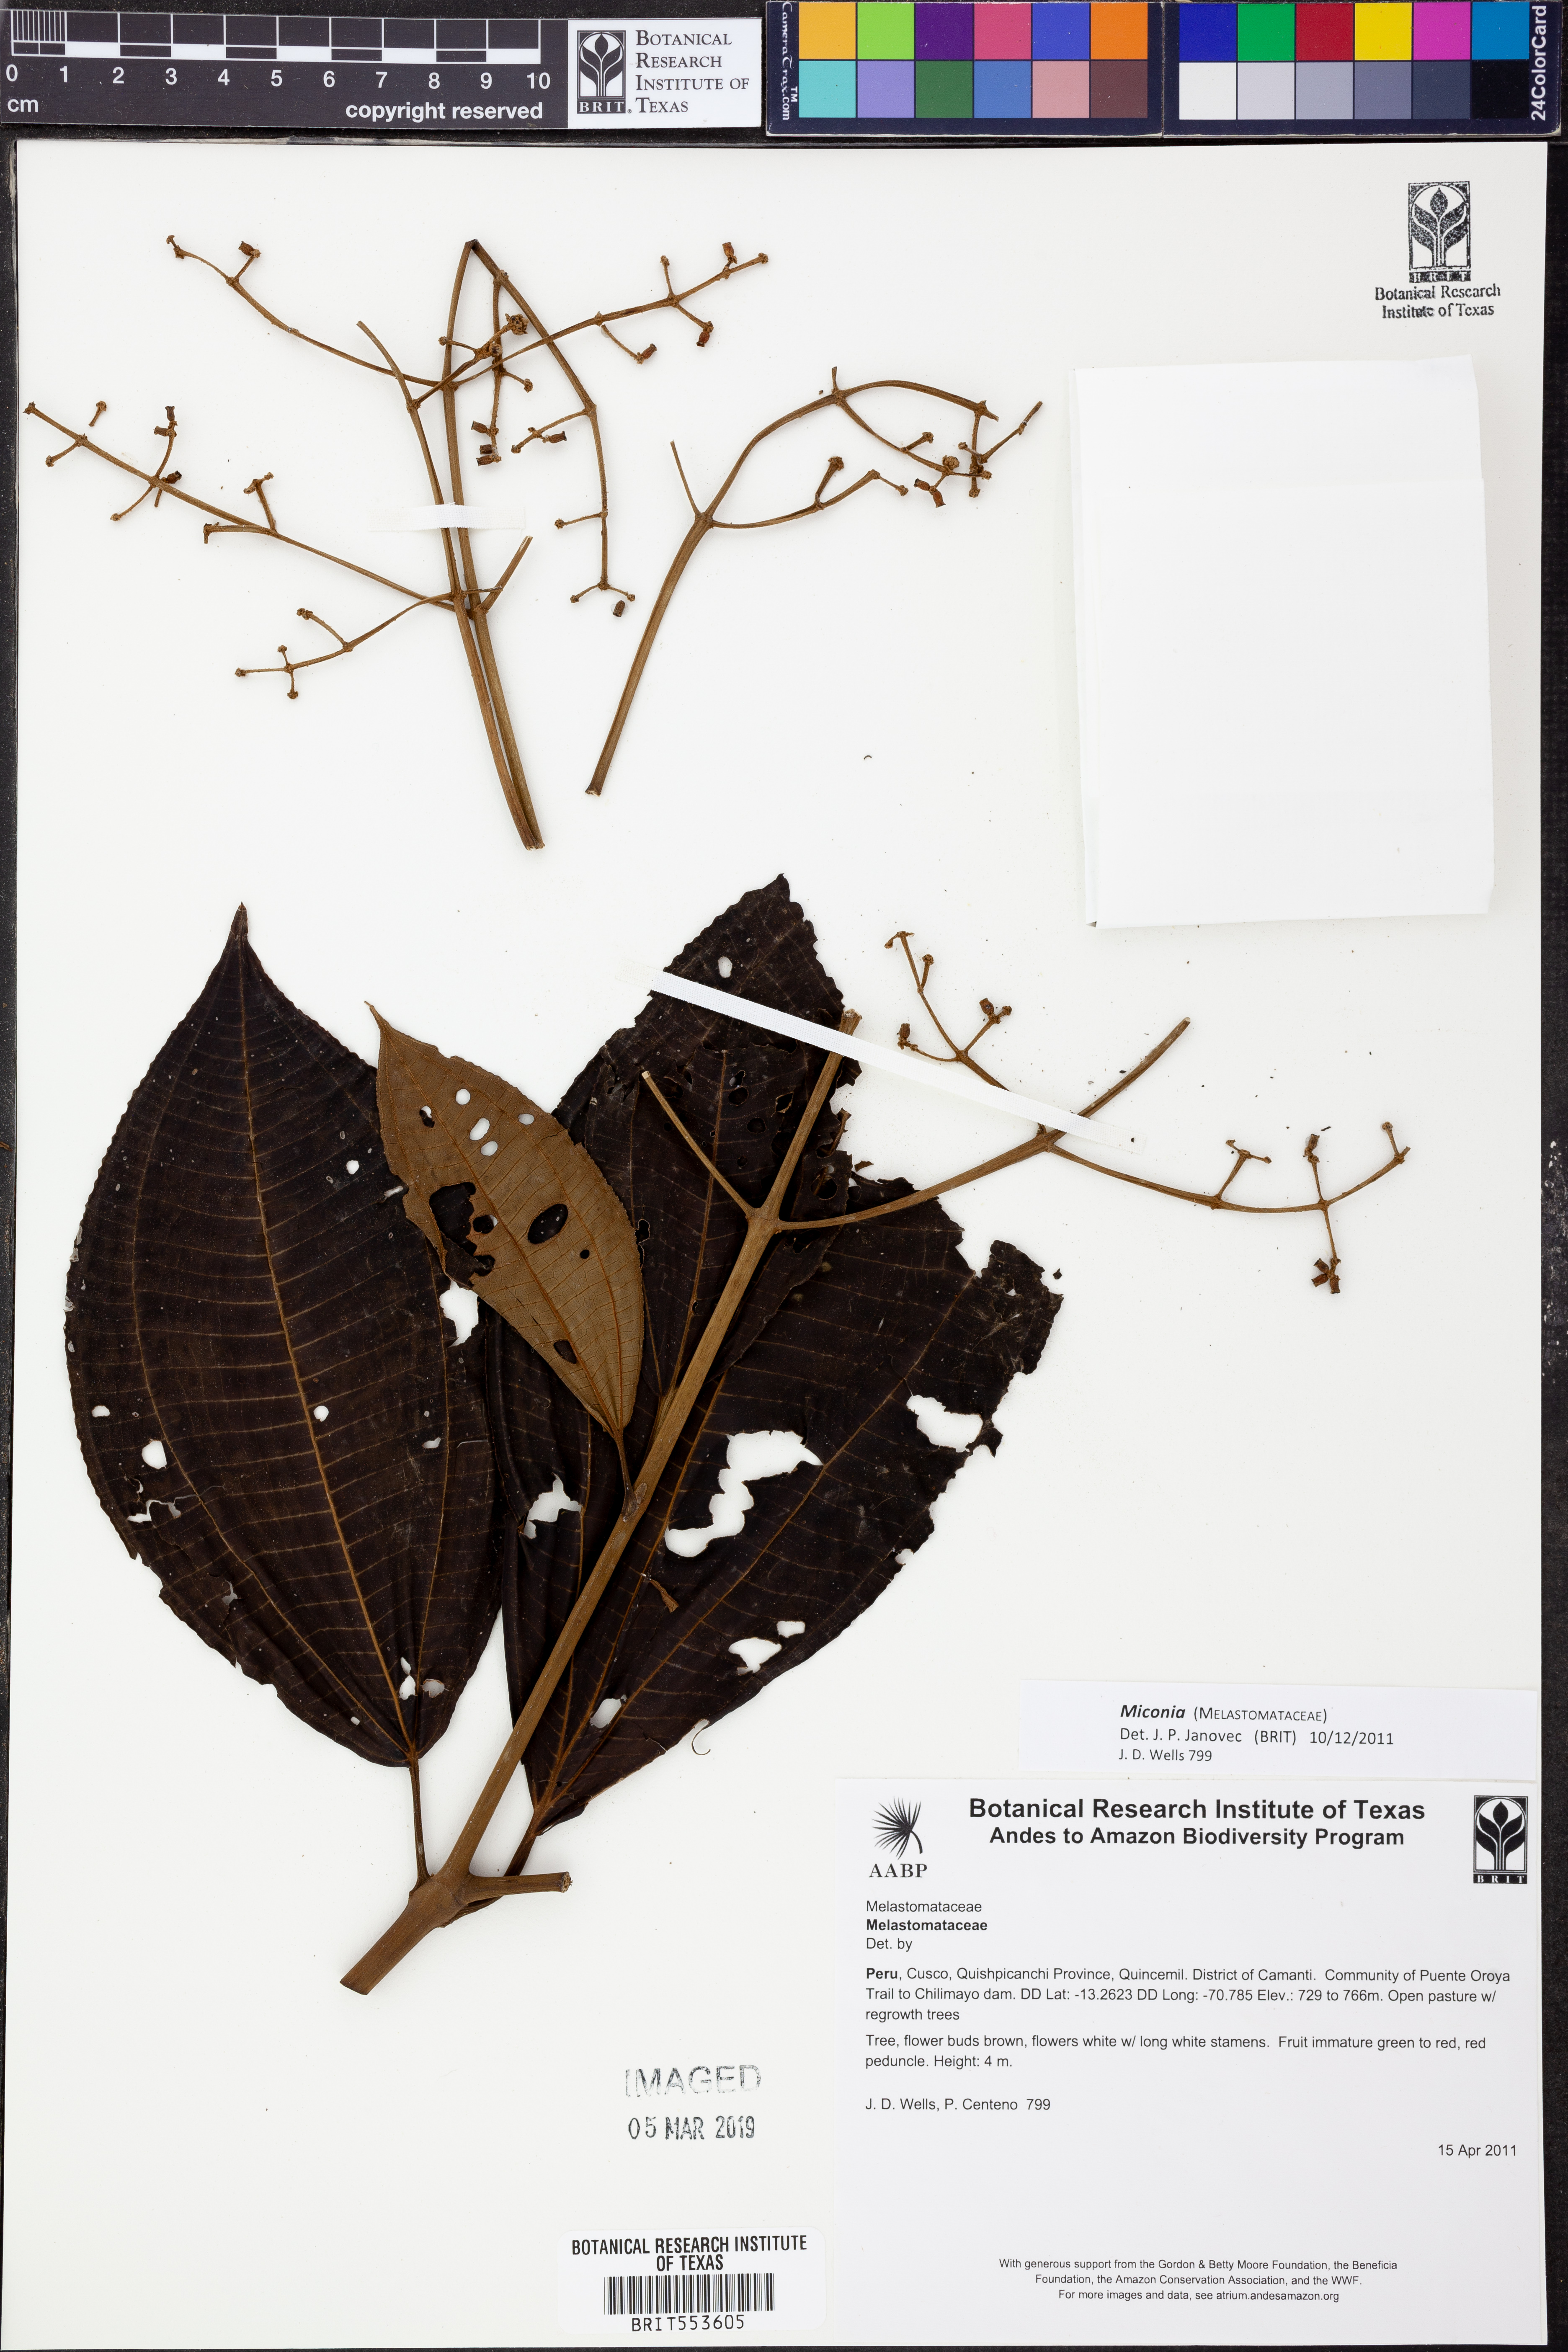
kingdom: Plantae
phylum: Tracheophyta
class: Magnoliopsida
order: Myrtales
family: Melastomataceae
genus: Miconia
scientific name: Miconia
